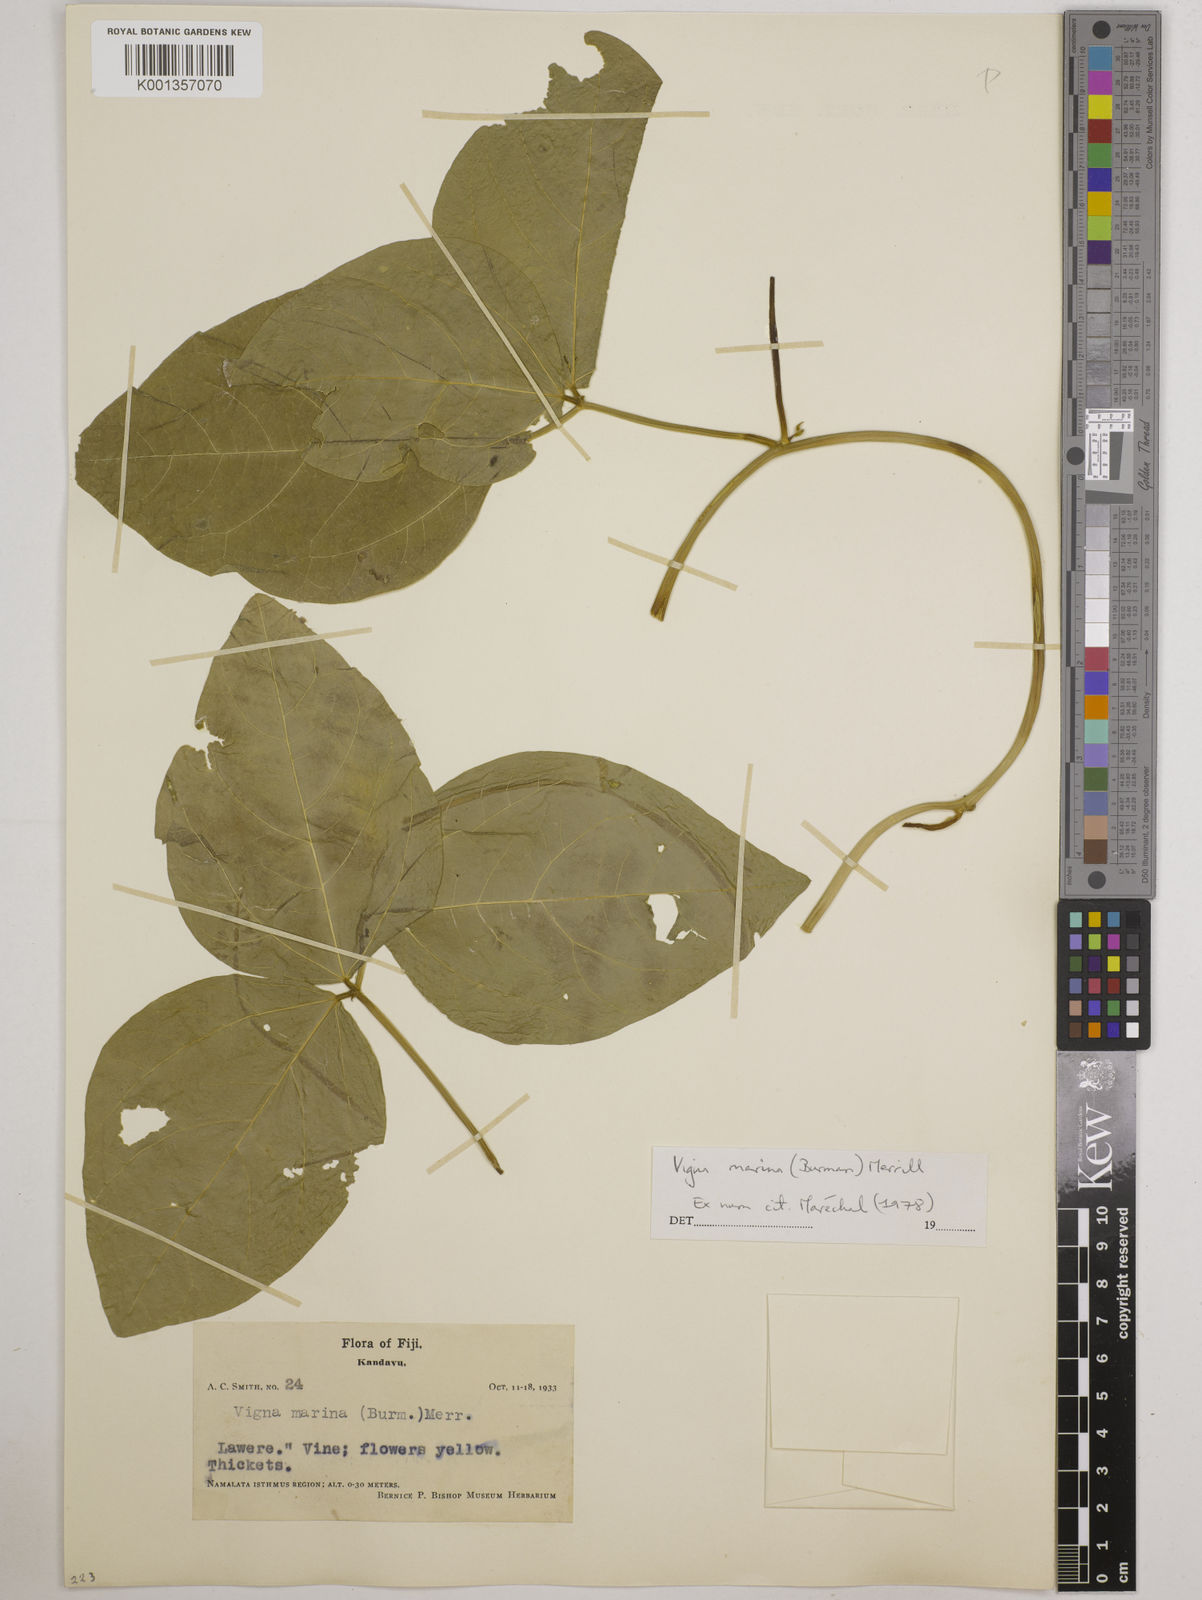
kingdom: Plantae
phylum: Tracheophyta
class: Magnoliopsida
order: Fabales
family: Fabaceae
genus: Vigna
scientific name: Vigna marina
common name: Dune-bean
